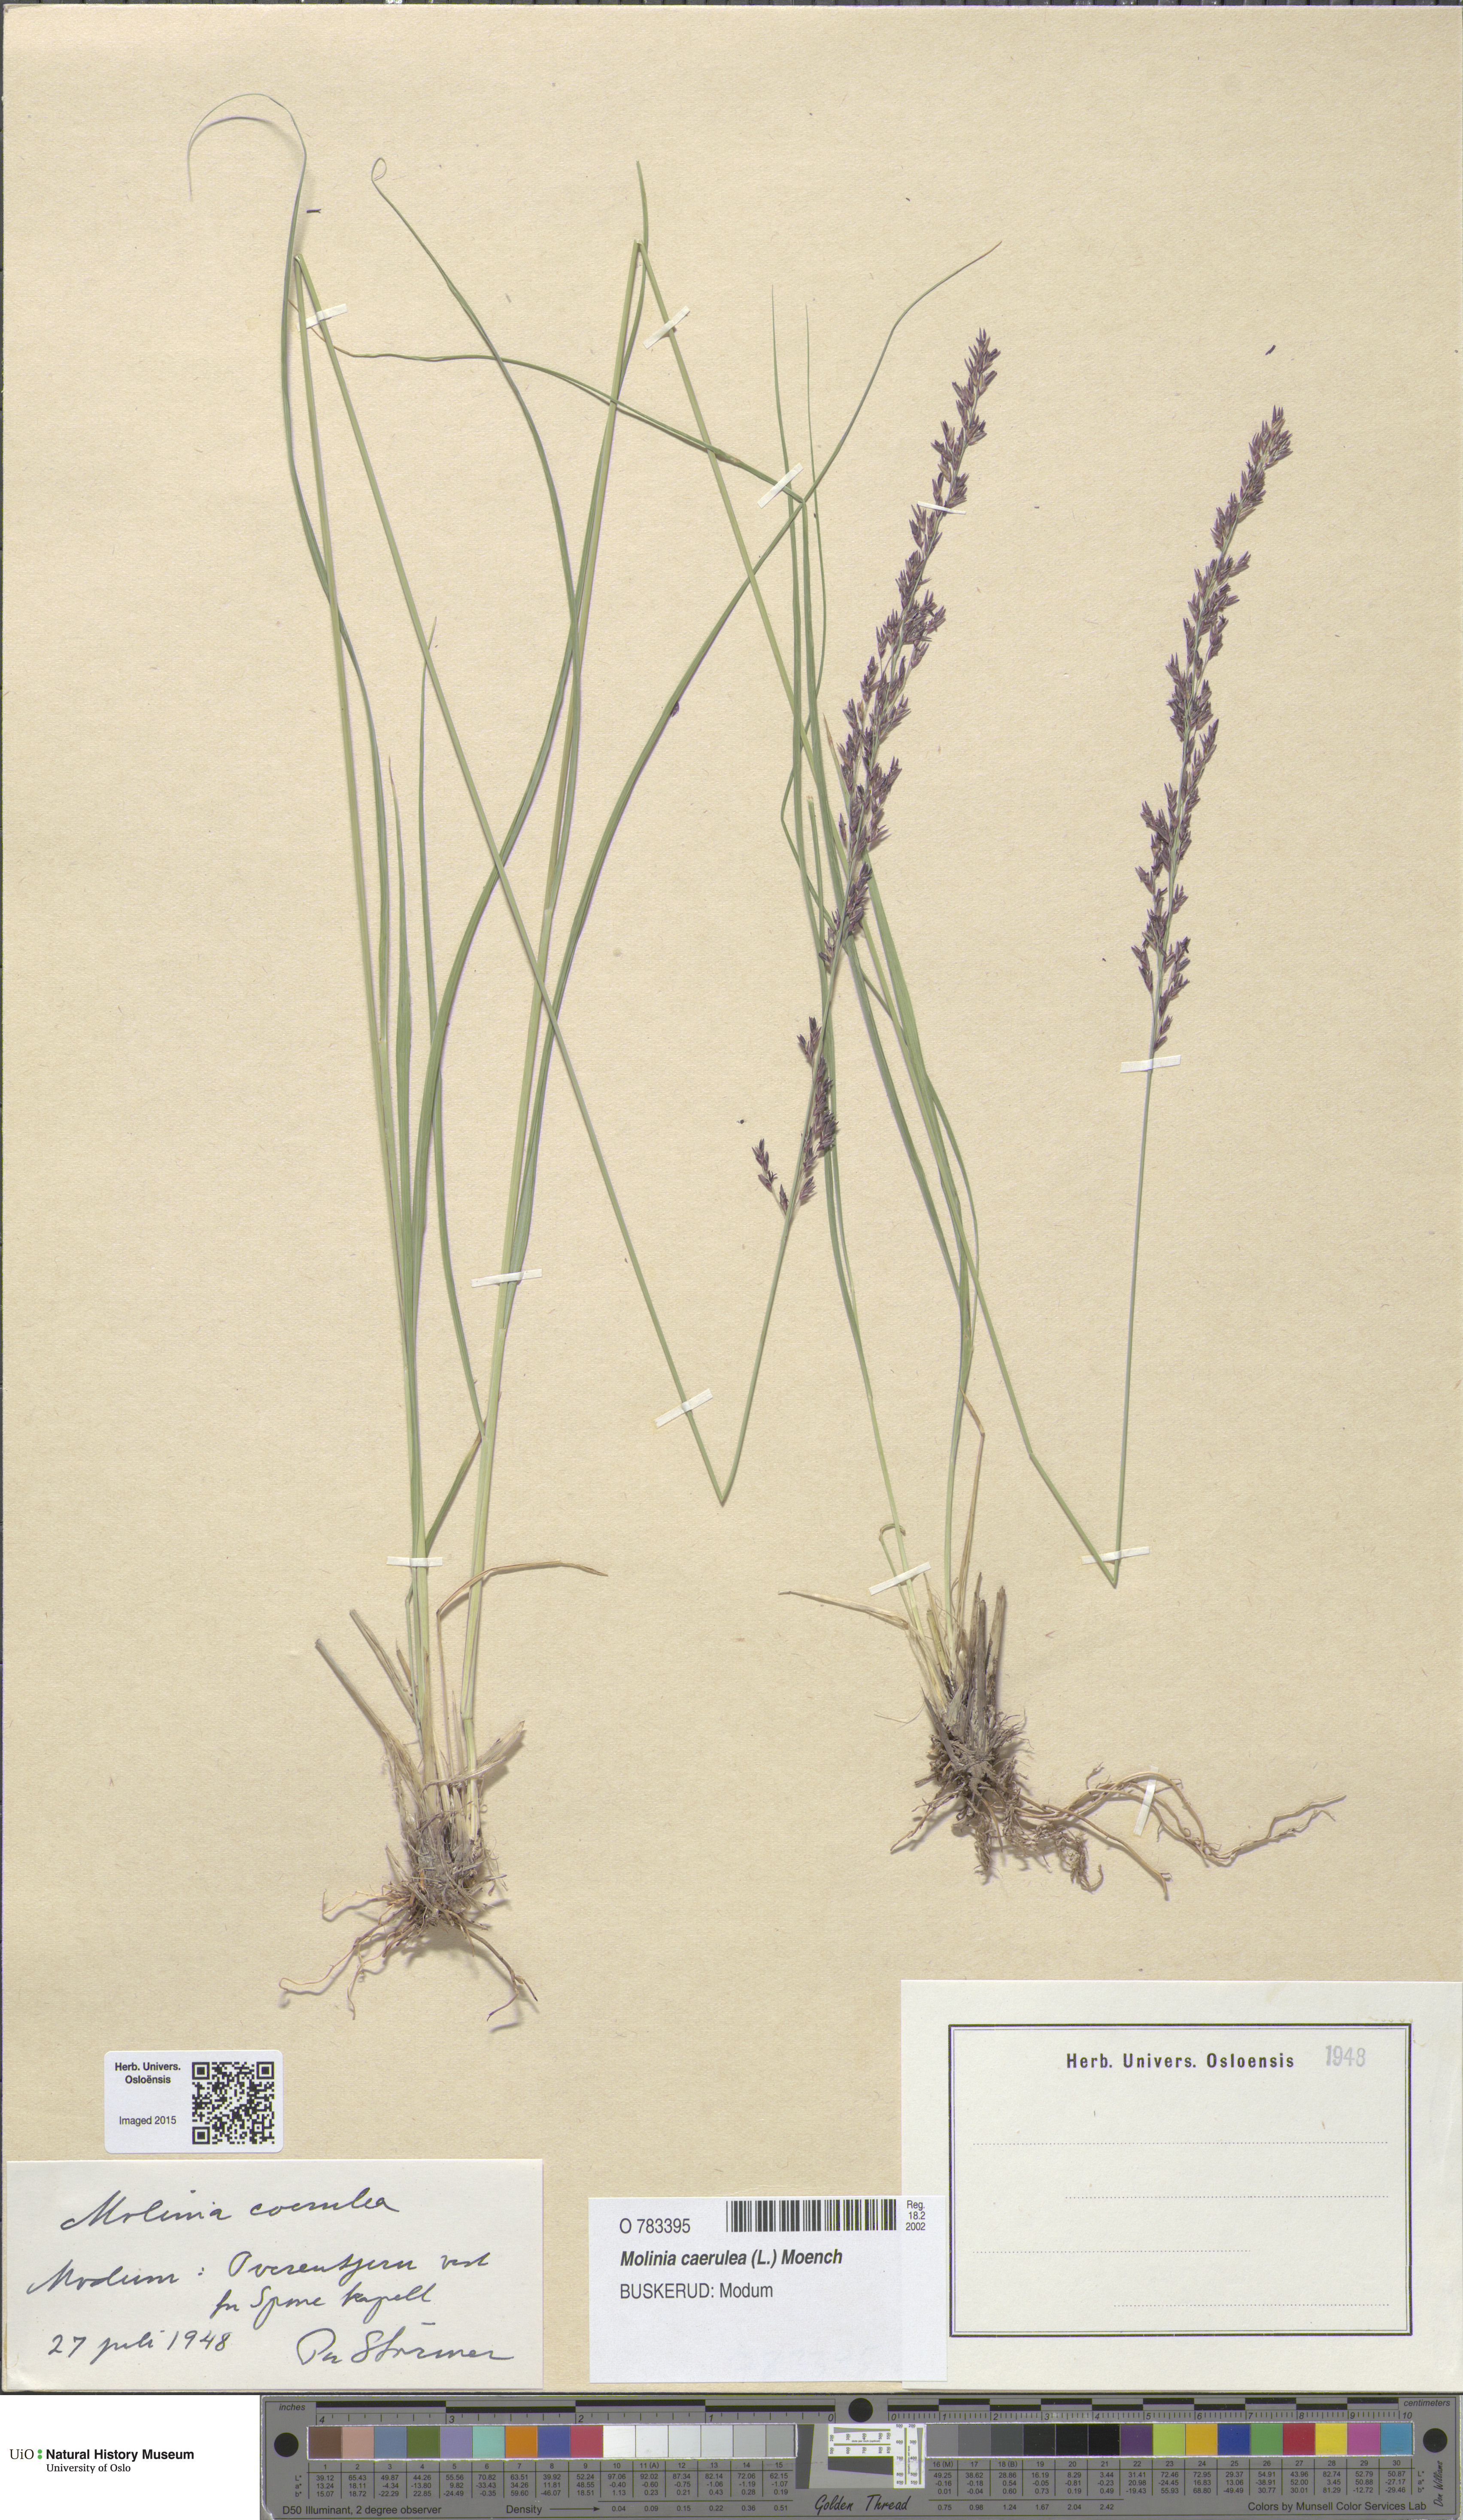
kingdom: Plantae
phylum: Tracheophyta
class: Liliopsida
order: Poales
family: Poaceae
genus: Molinia
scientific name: Molinia caerulea
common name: Purple moor-grass
